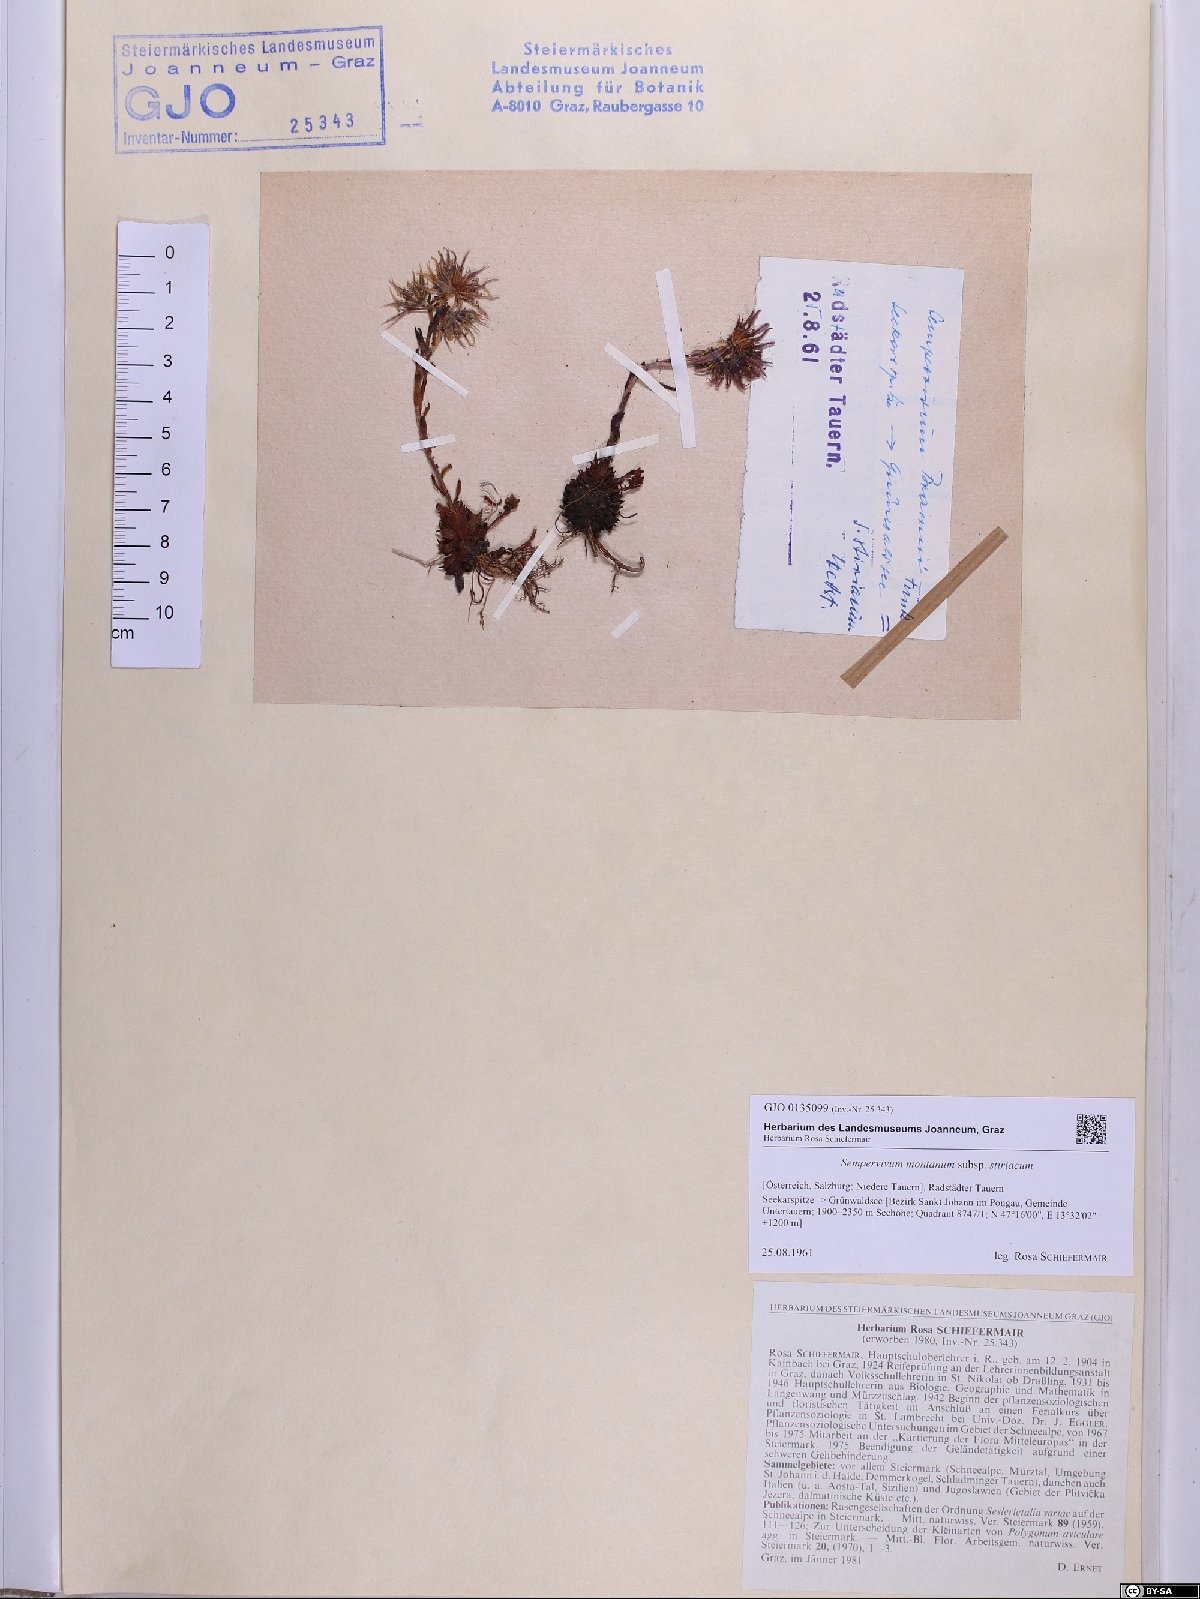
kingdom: Plantae
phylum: Tracheophyta
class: Magnoliopsida
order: Saxifragales
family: Crassulaceae
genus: Sempervivum
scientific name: Sempervivum montanum
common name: Mountain house-leek
